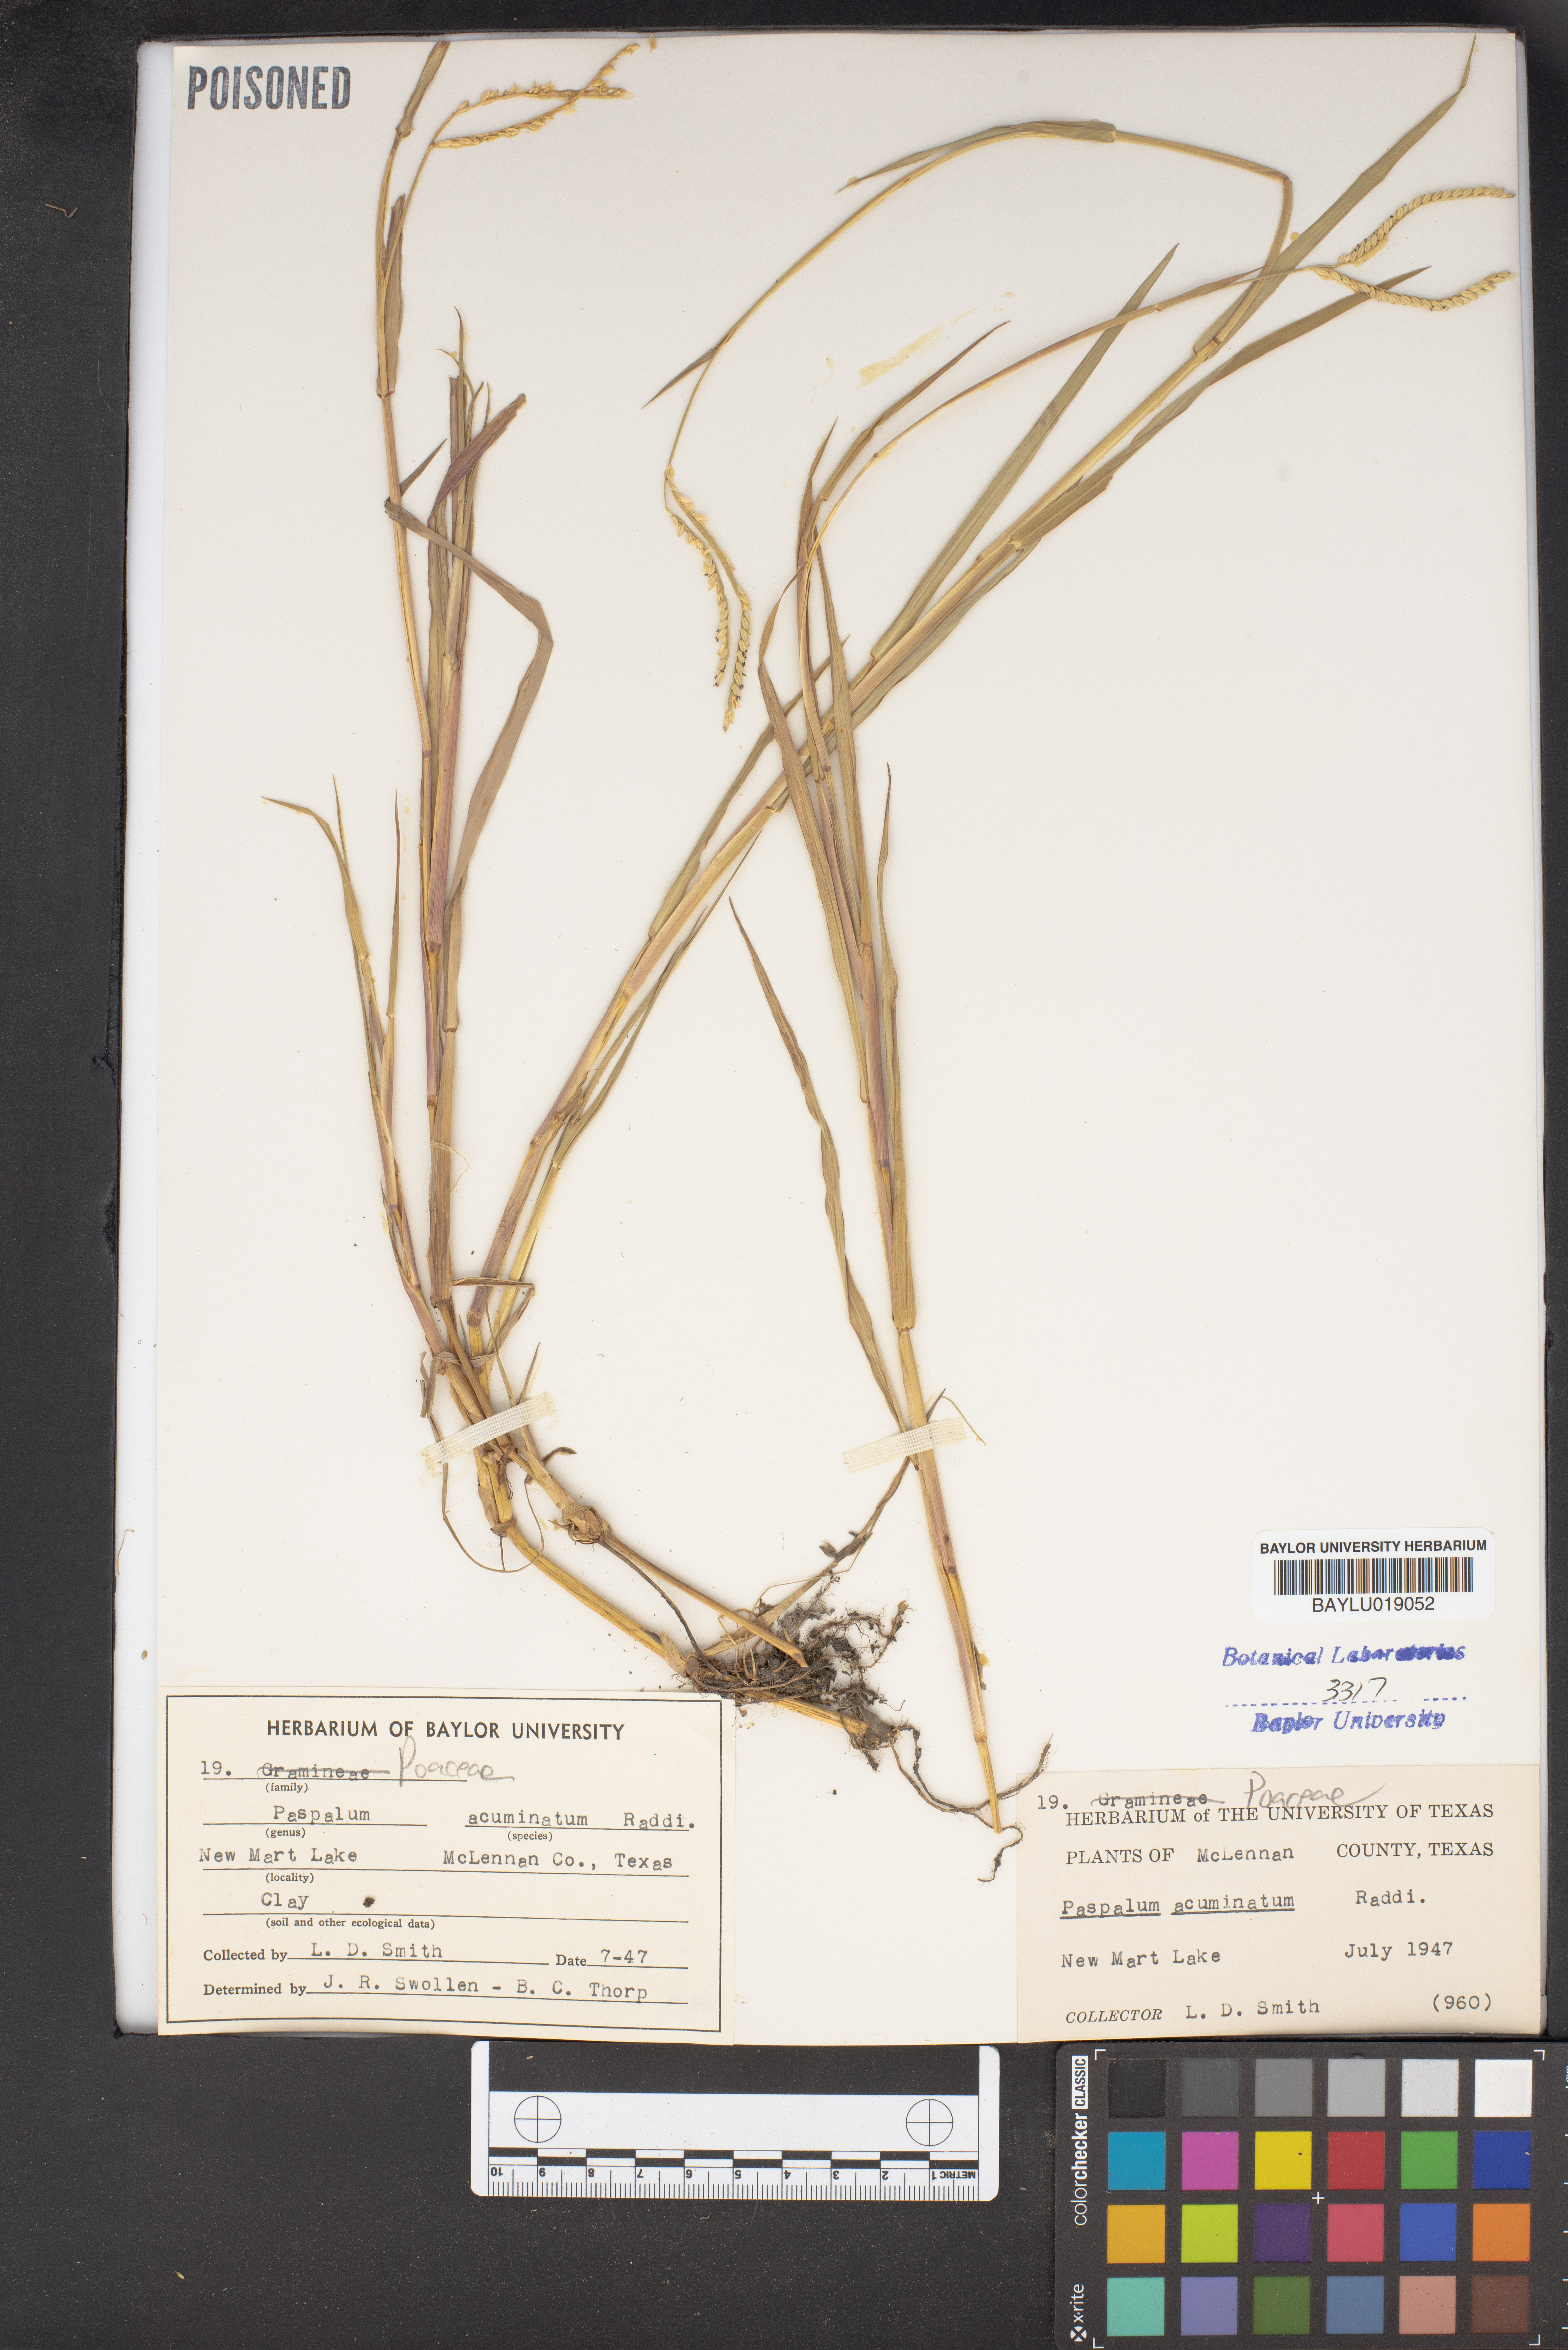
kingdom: Plantae
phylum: Tracheophyta
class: Liliopsida
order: Poales
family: Poaceae
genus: Paspalum
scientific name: Paspalum acuminatum
